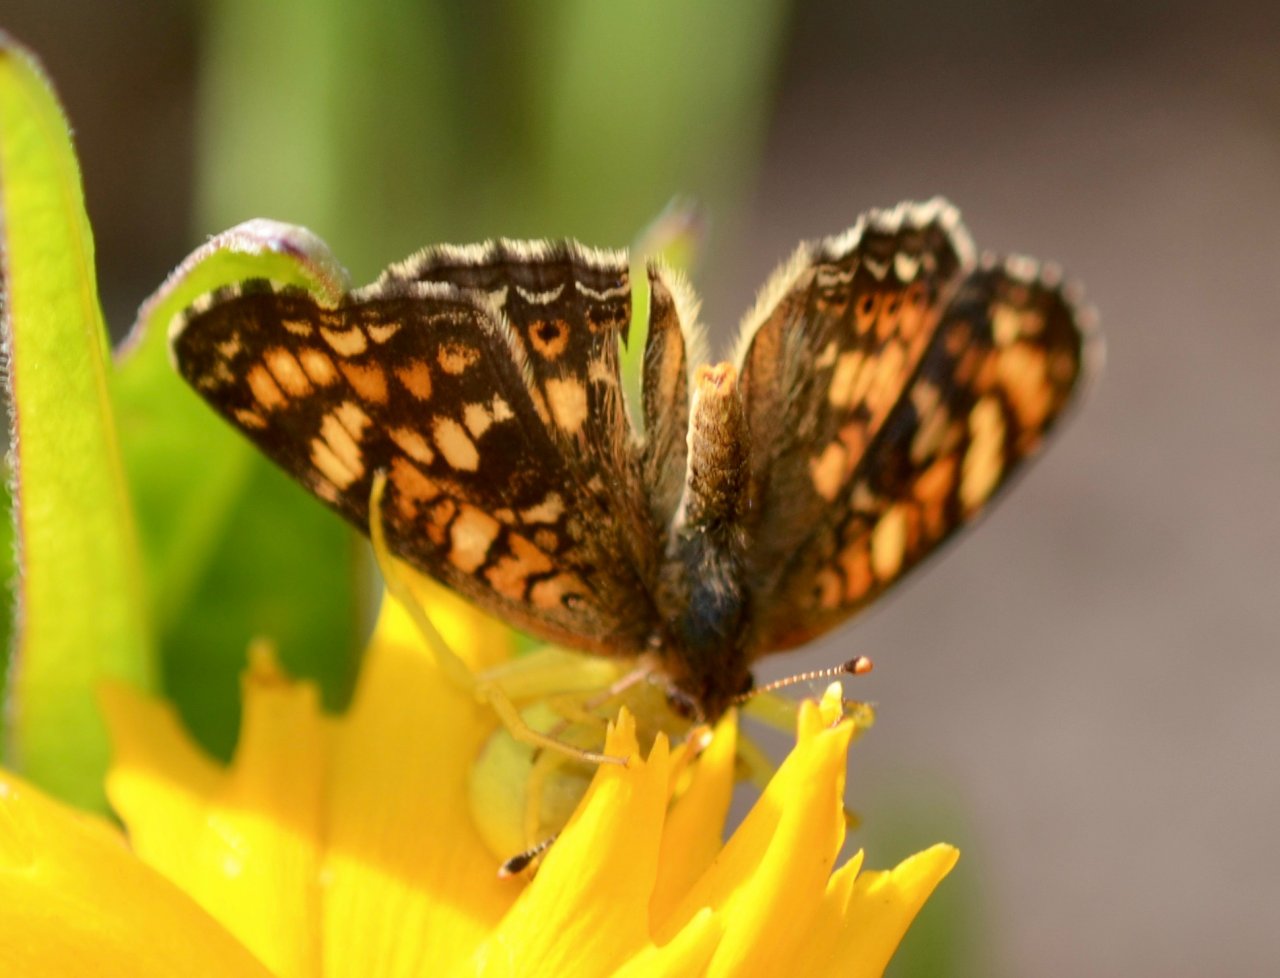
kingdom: Animalia
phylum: Arthropoda
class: Insecta
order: Lepidoptera
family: Nymphalidae
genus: Phyciodes
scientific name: Phyciodes tharos
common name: Field Crescent
